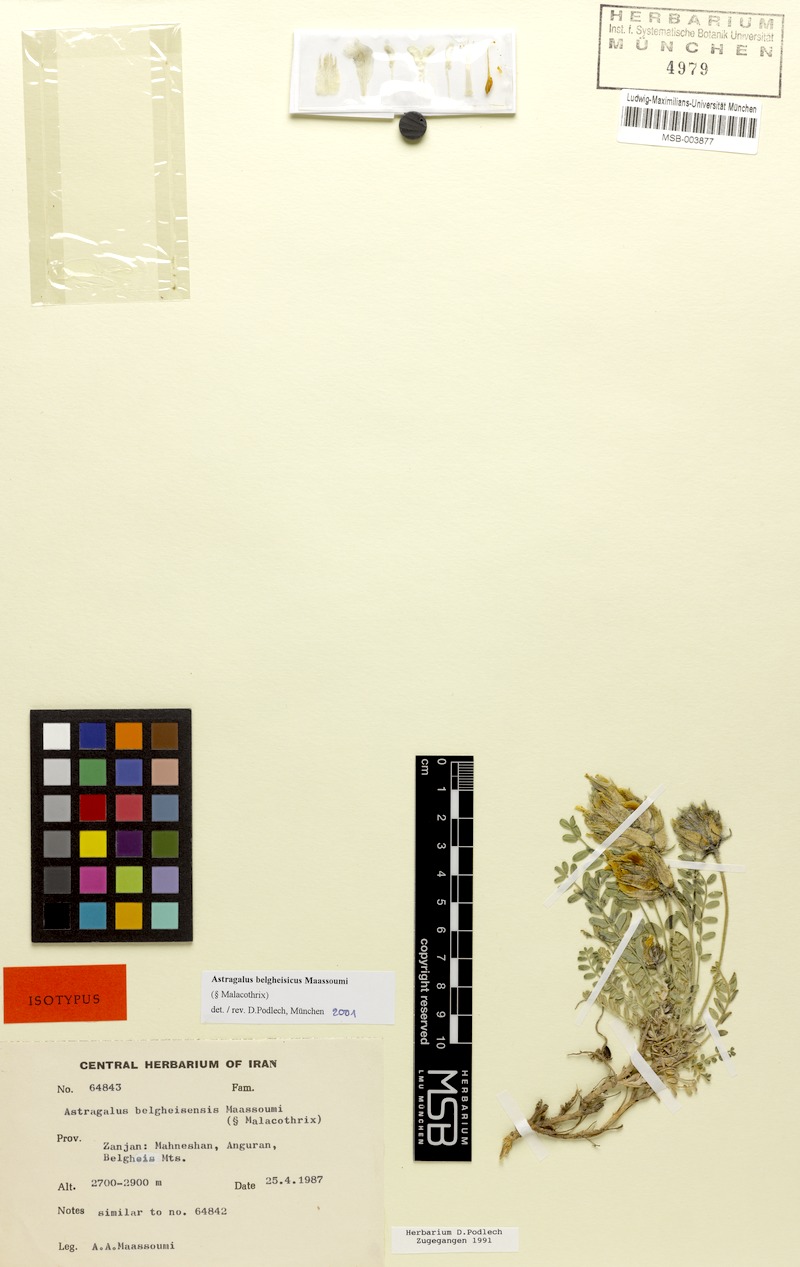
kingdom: Plantae
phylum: Tracheophyta
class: Magnoliopsida
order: Fabales
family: Fabaceae
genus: Astragalus
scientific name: Astragalus belgheisicus
